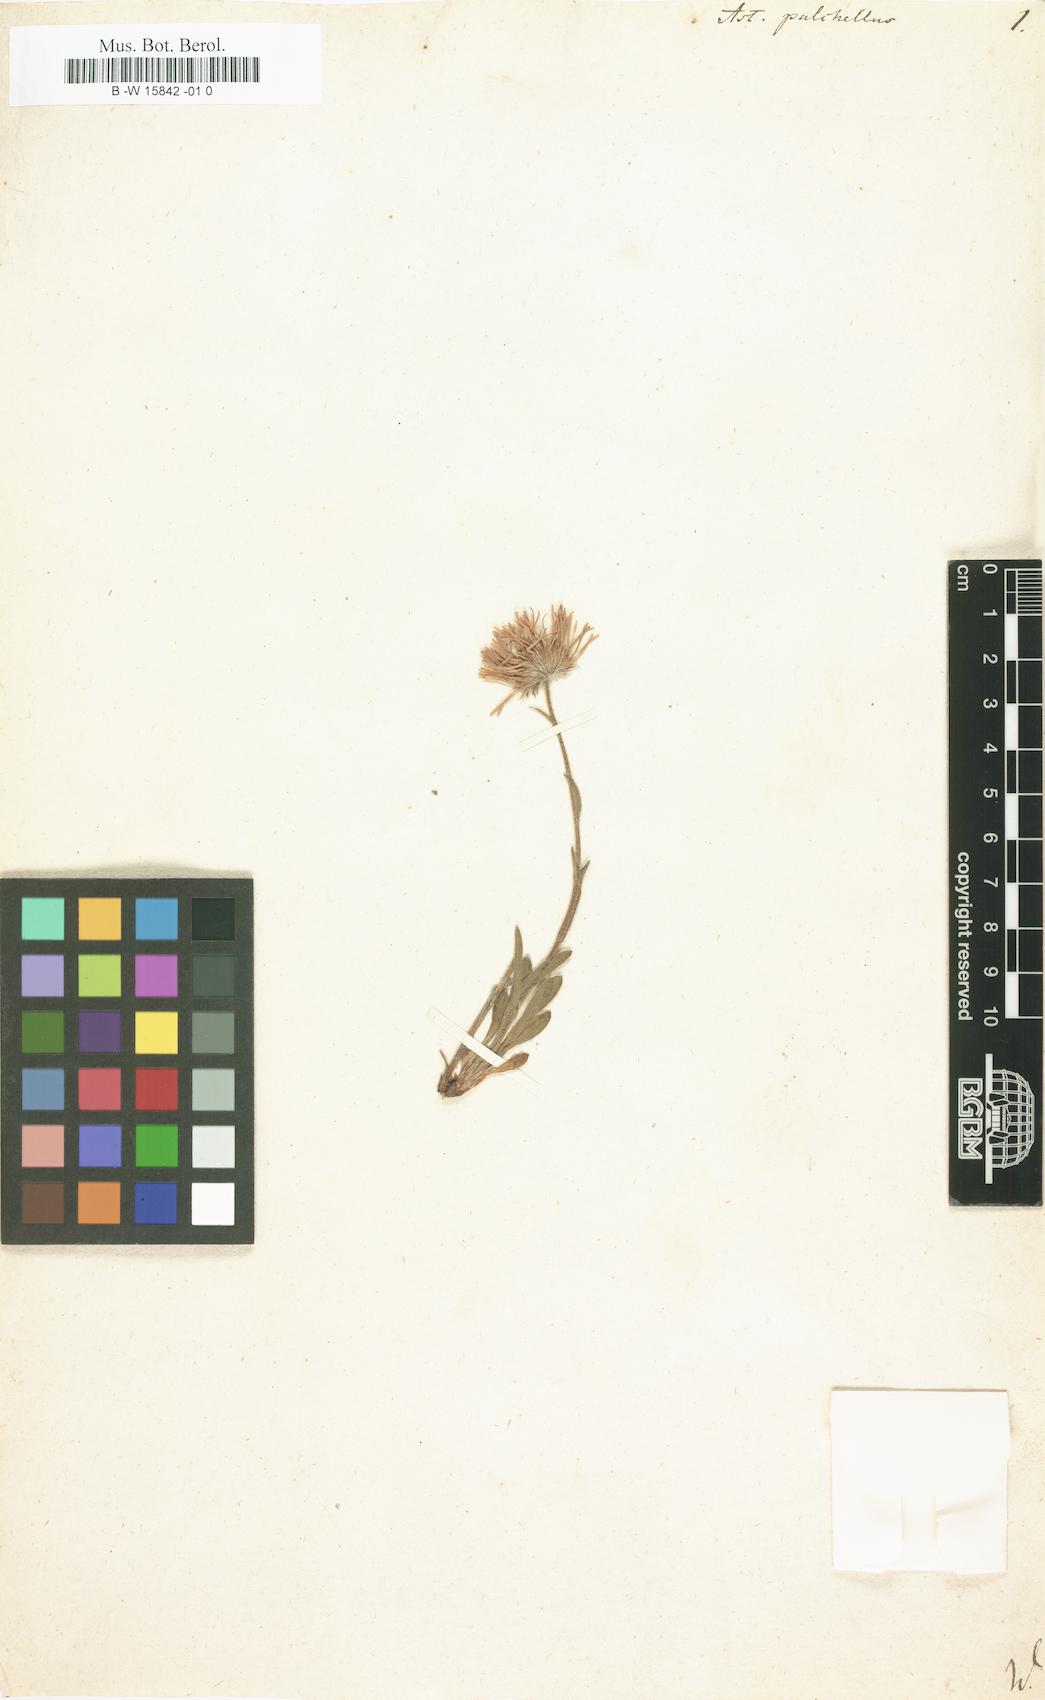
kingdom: Plantae
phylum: Tracheophyta
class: Magnoliopsida
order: Asterales
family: Asteraceae
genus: Erigeron
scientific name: Erigeron caucasicus
